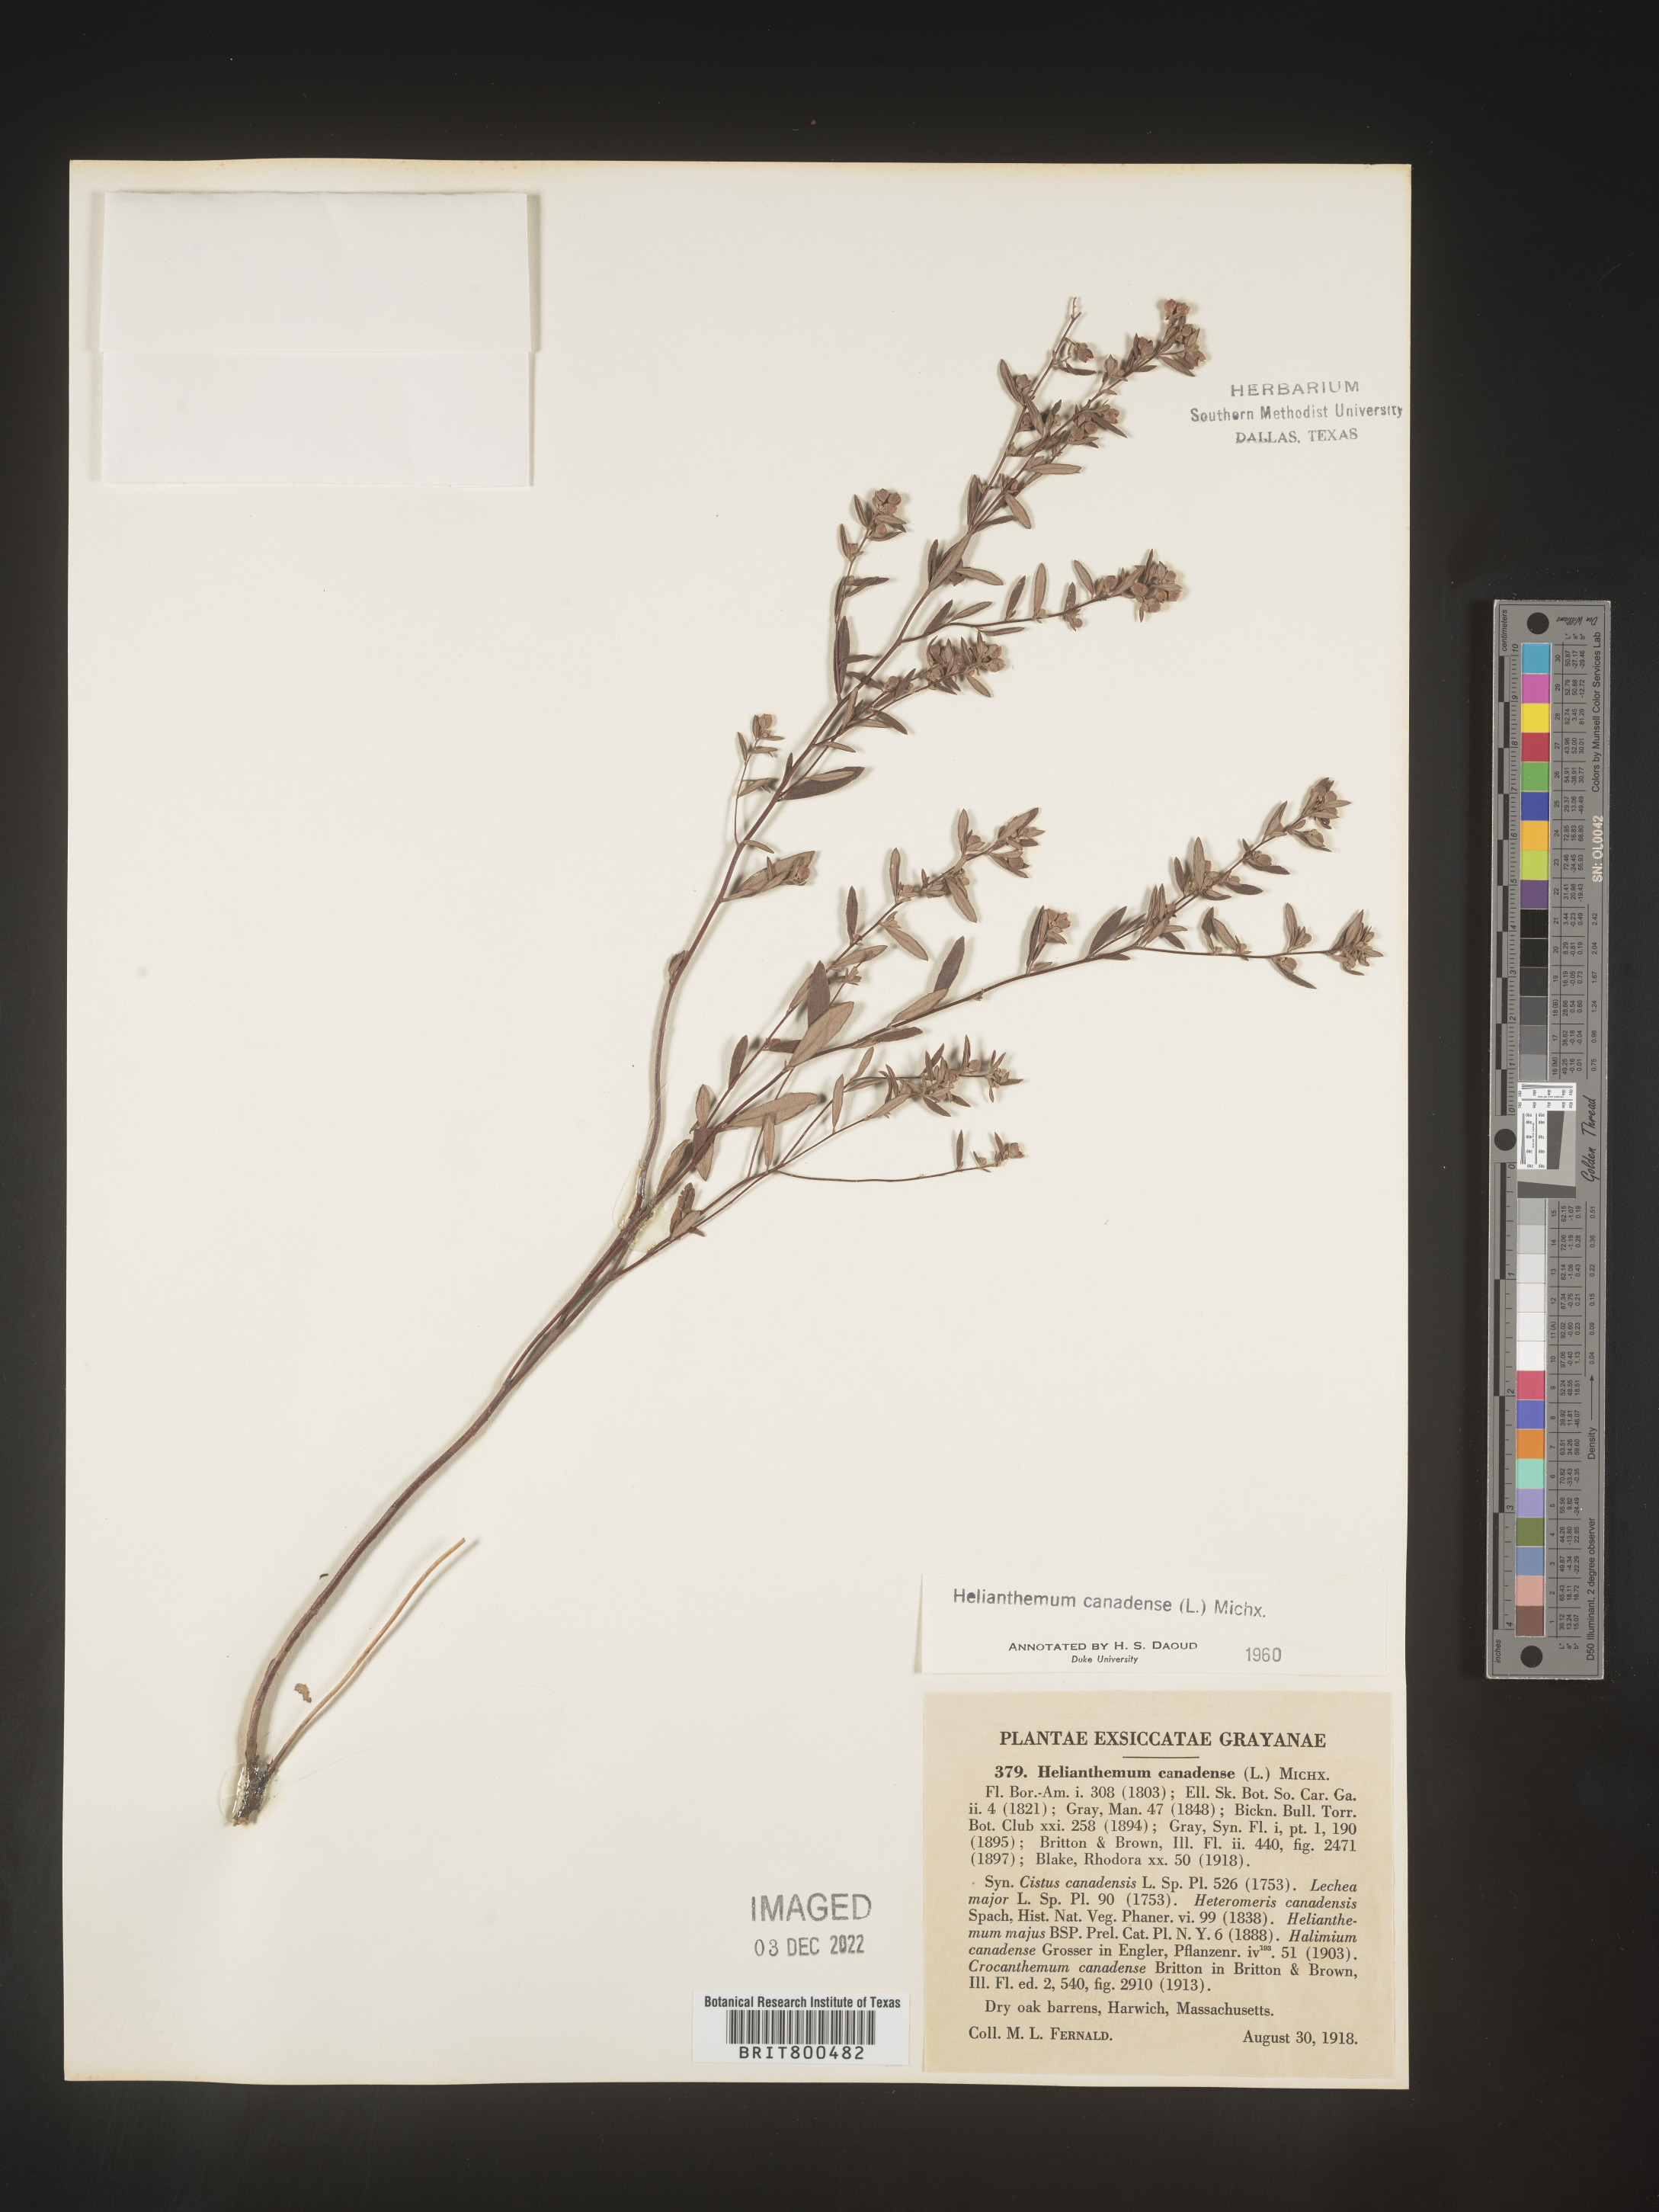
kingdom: Plantae
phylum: Tracheophyta
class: Magnoliopsida
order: Malvales
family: Cistaceae
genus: Crocanthemum
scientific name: Crocanthemum canadense
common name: Canada frostweed
